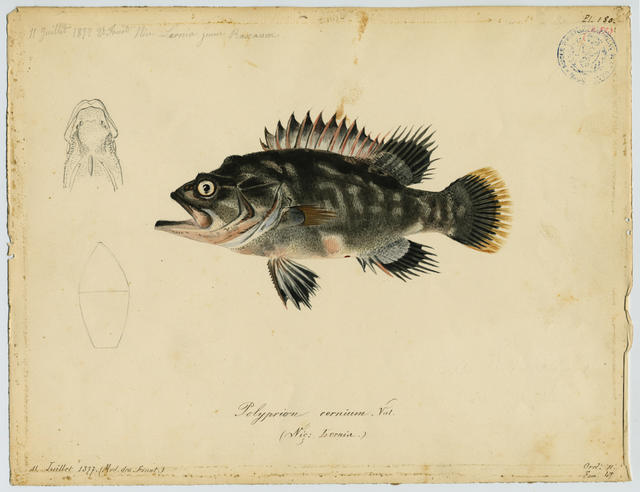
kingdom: Animalia
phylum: Chordata
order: Perciformes
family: Polyprionidae
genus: Polyprion
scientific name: Polyprion americanus
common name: Wreckfish
